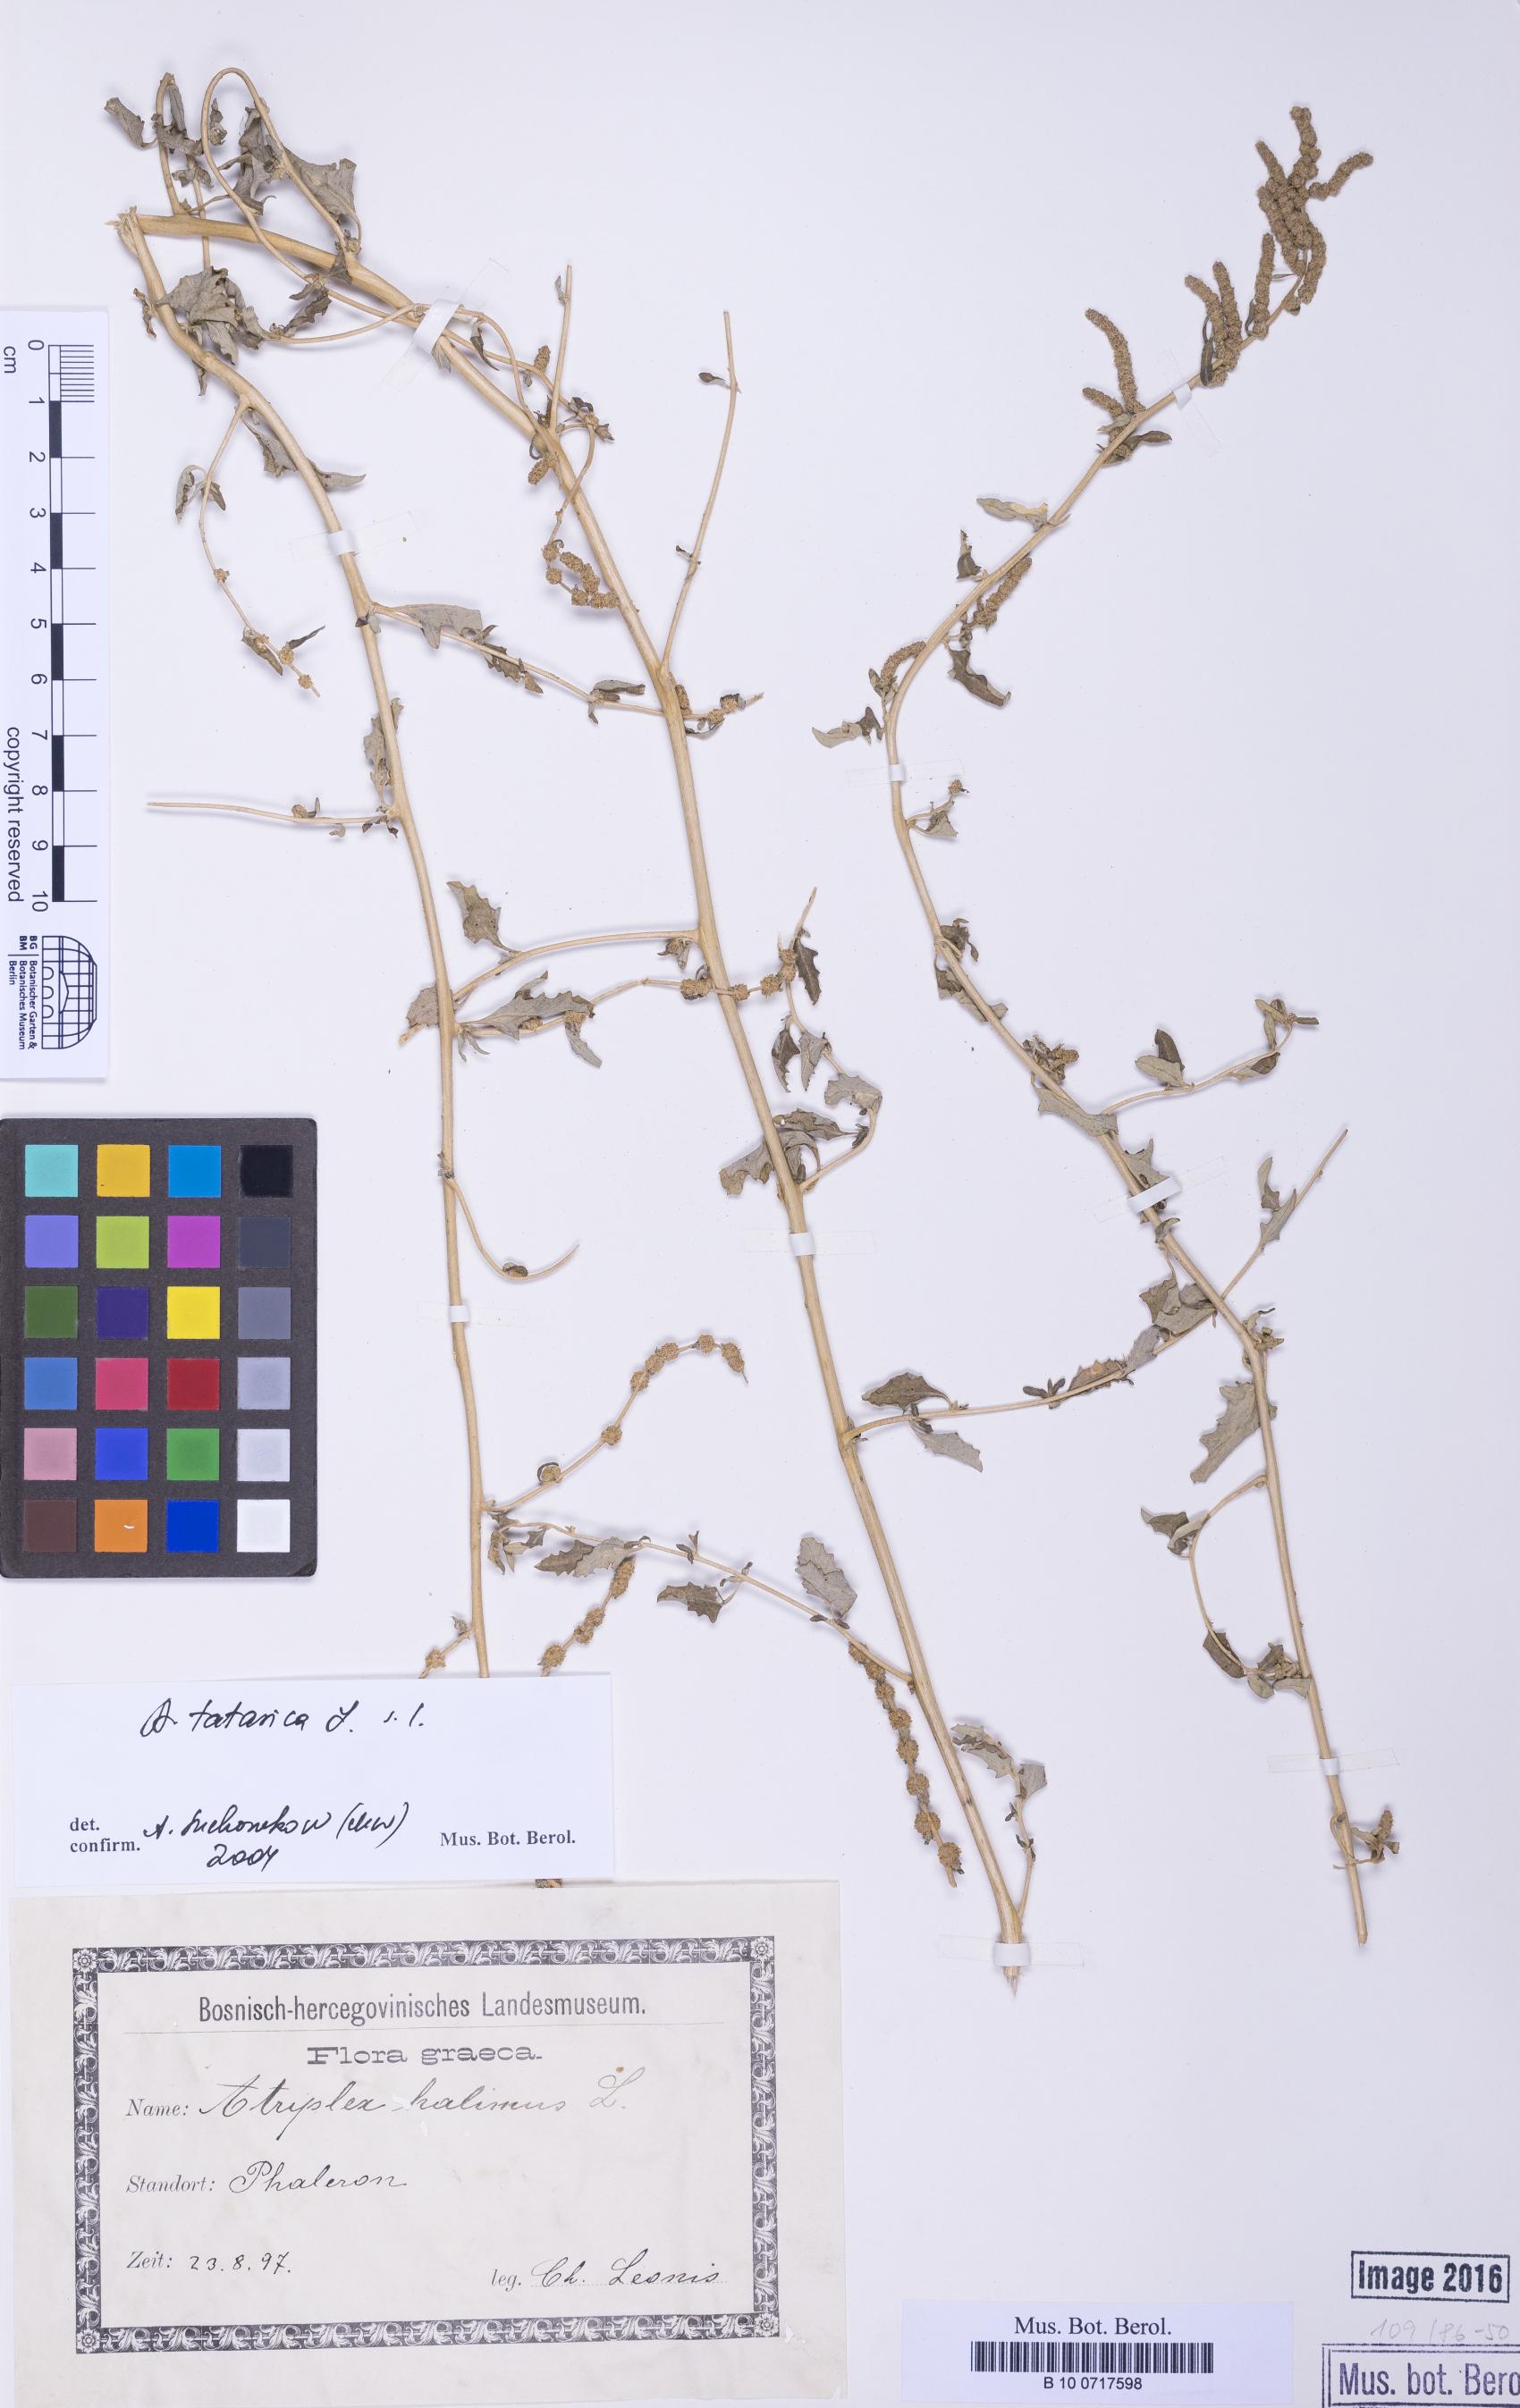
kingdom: Plantae
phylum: Tracheophyta
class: Magnoliopsida
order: Caryophyllales
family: Amaranthaceae
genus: Atriplex
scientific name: Atriplex tatarica
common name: Tatarian orache
